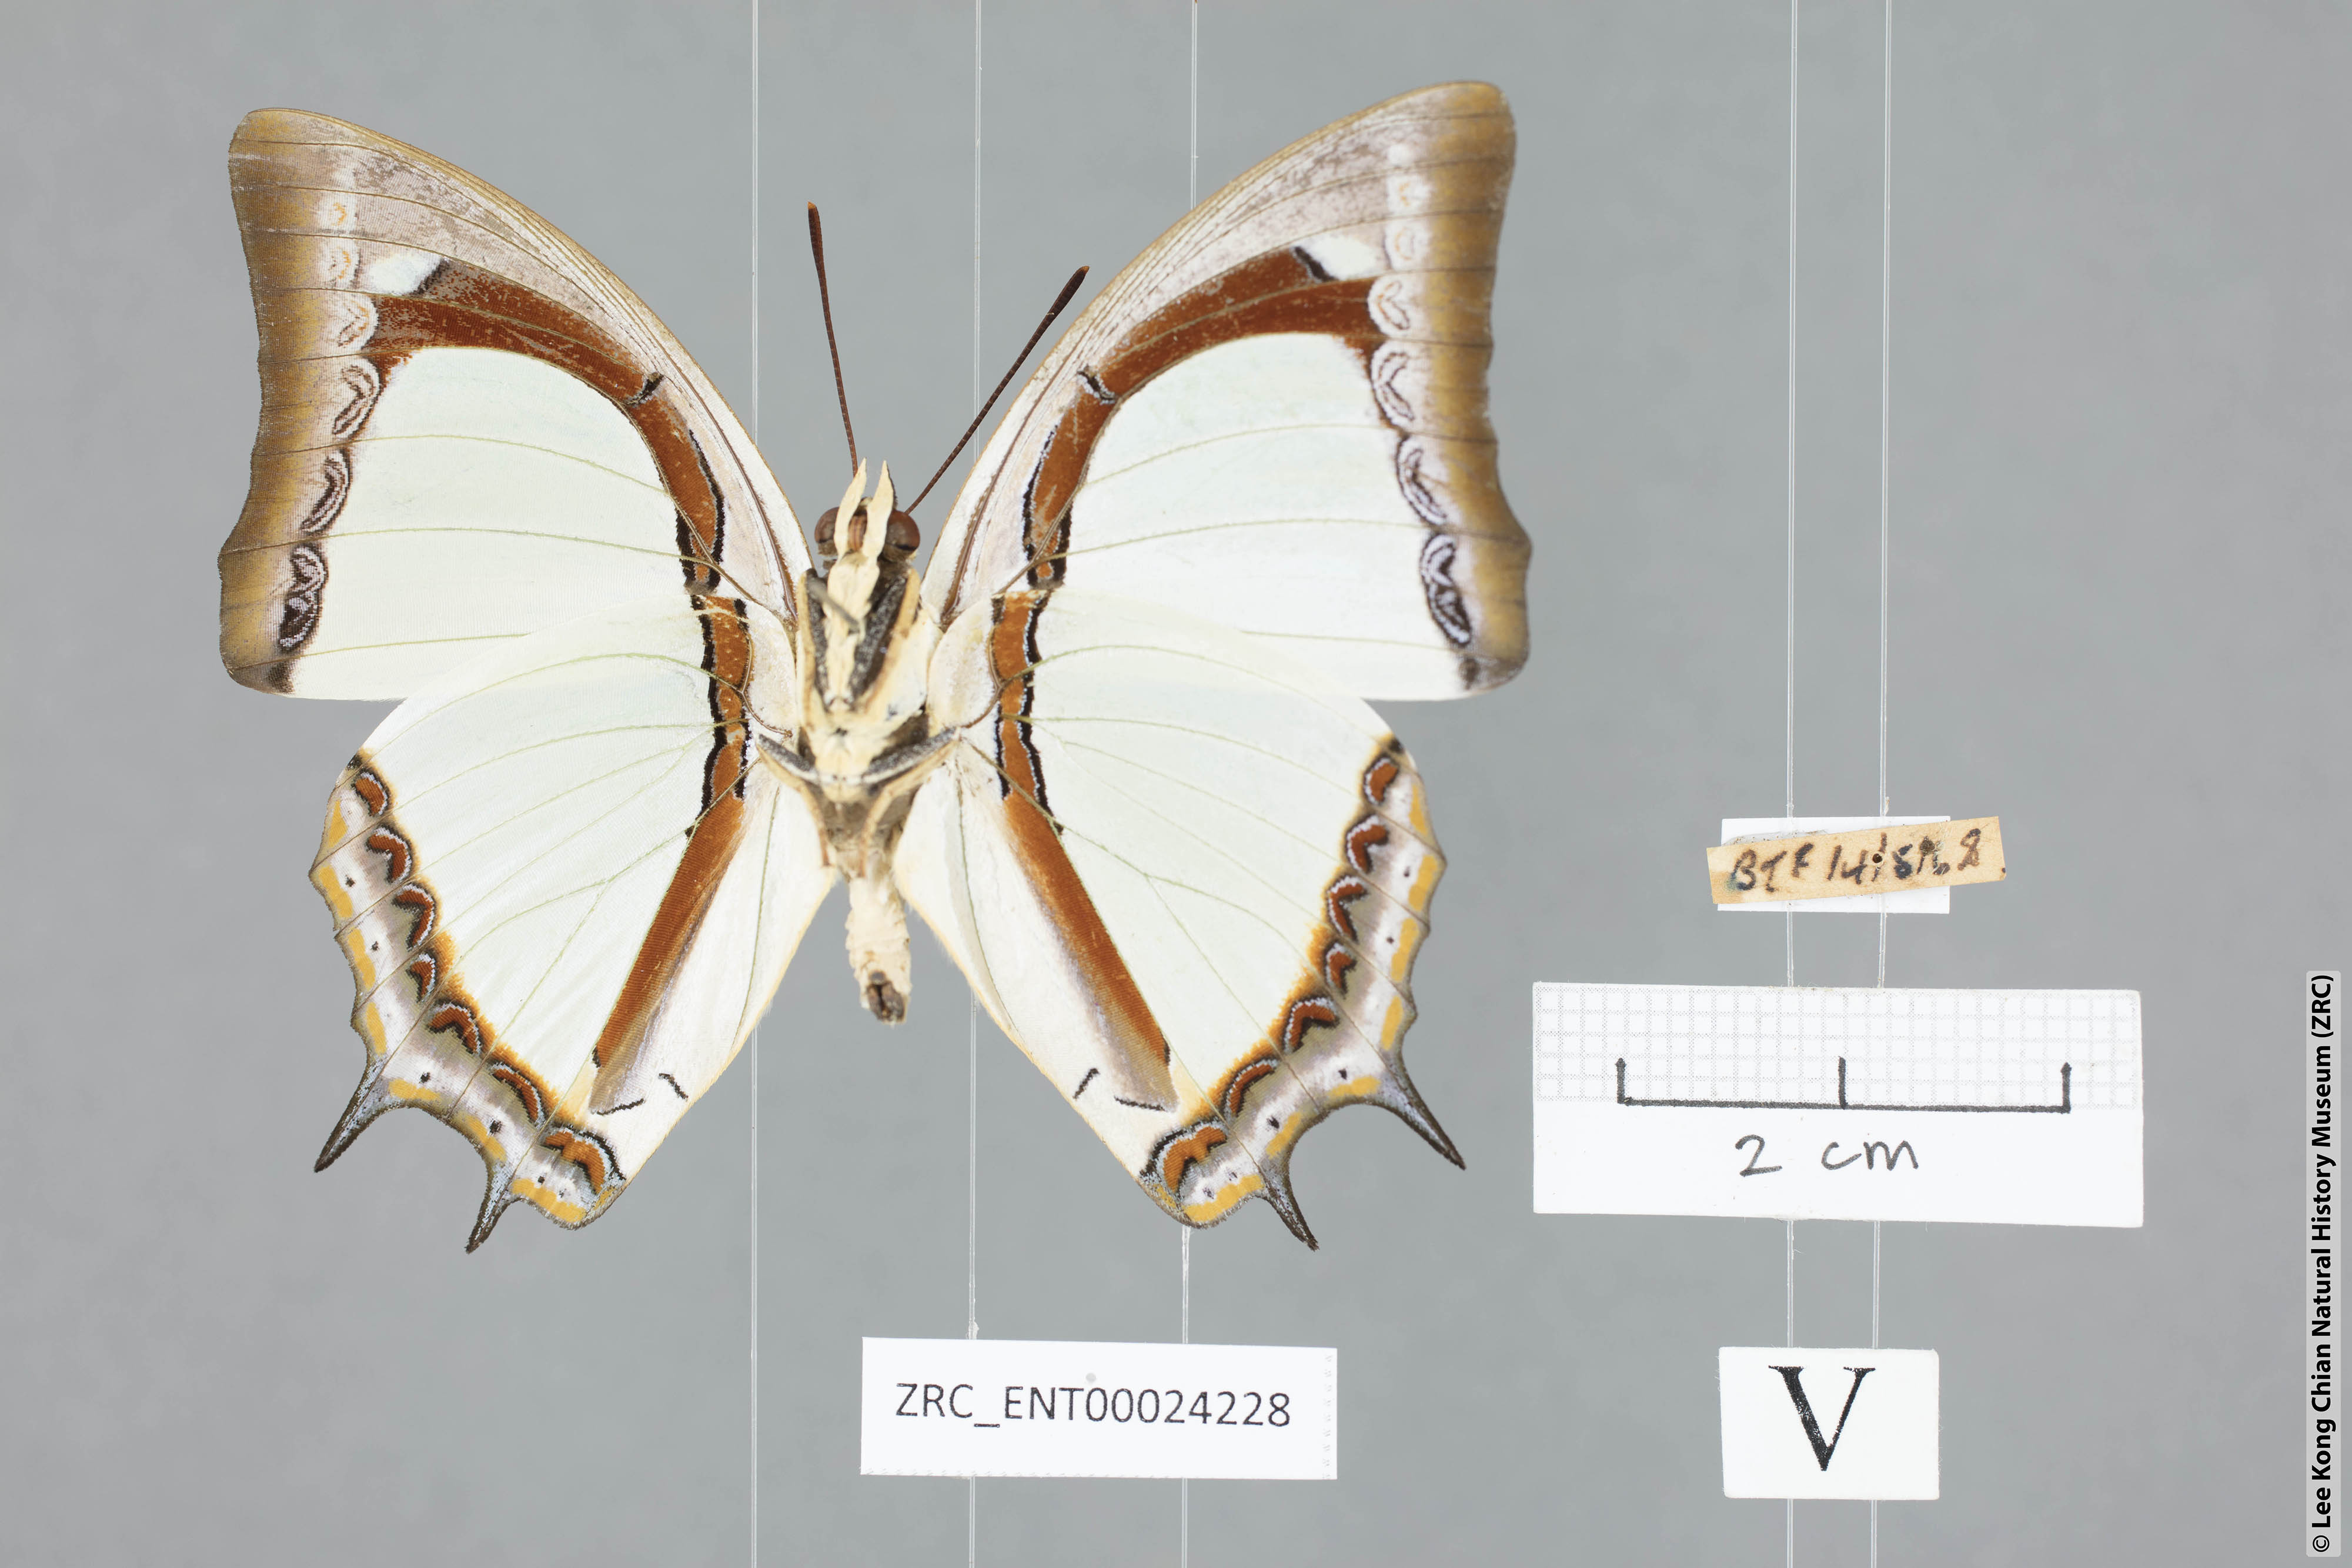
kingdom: Animalia
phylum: Arthropoda
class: Insecta
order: Lepidoptera
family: Nymphalidae
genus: Polyura
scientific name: Polyura jalysus
